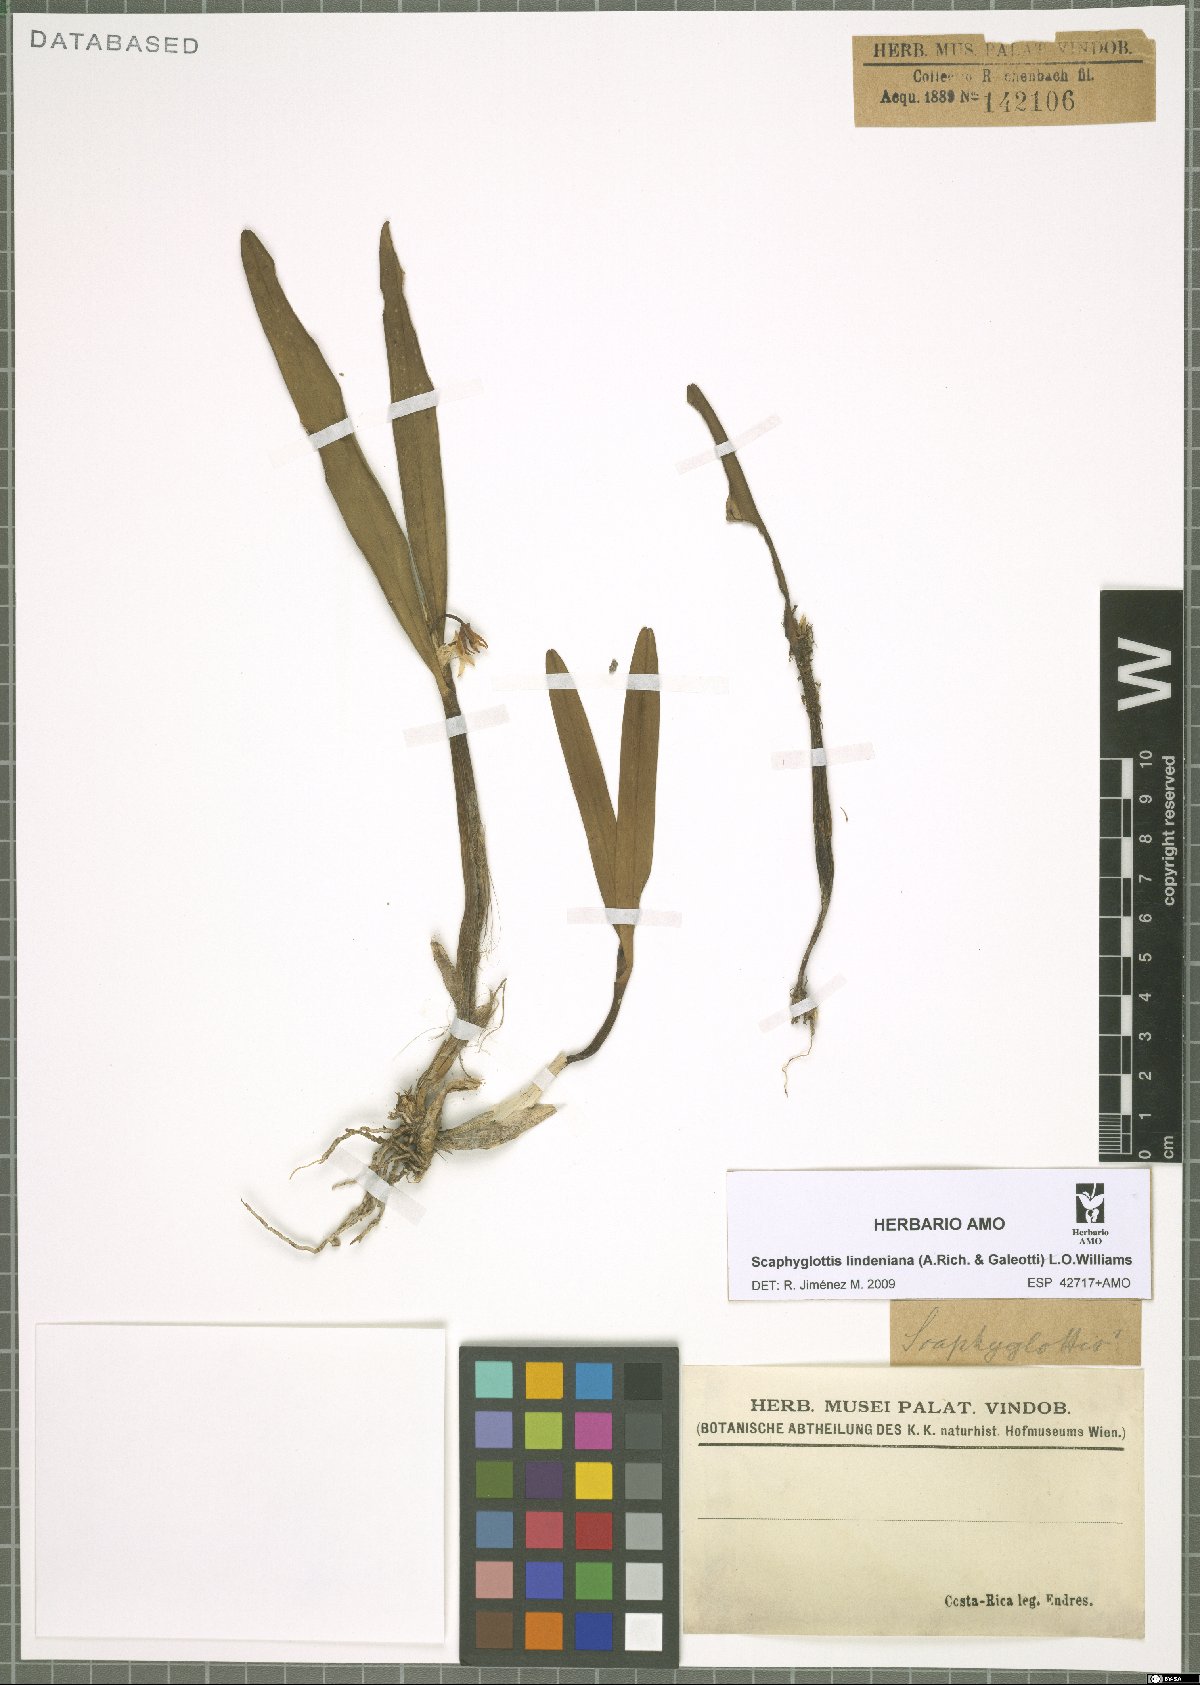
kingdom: Plantae
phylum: Tracheophyta
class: Liliopsida
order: Asparagales
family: Orchidaceae
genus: Scaphyglottis
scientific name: Scaphyglottis lindeniana
